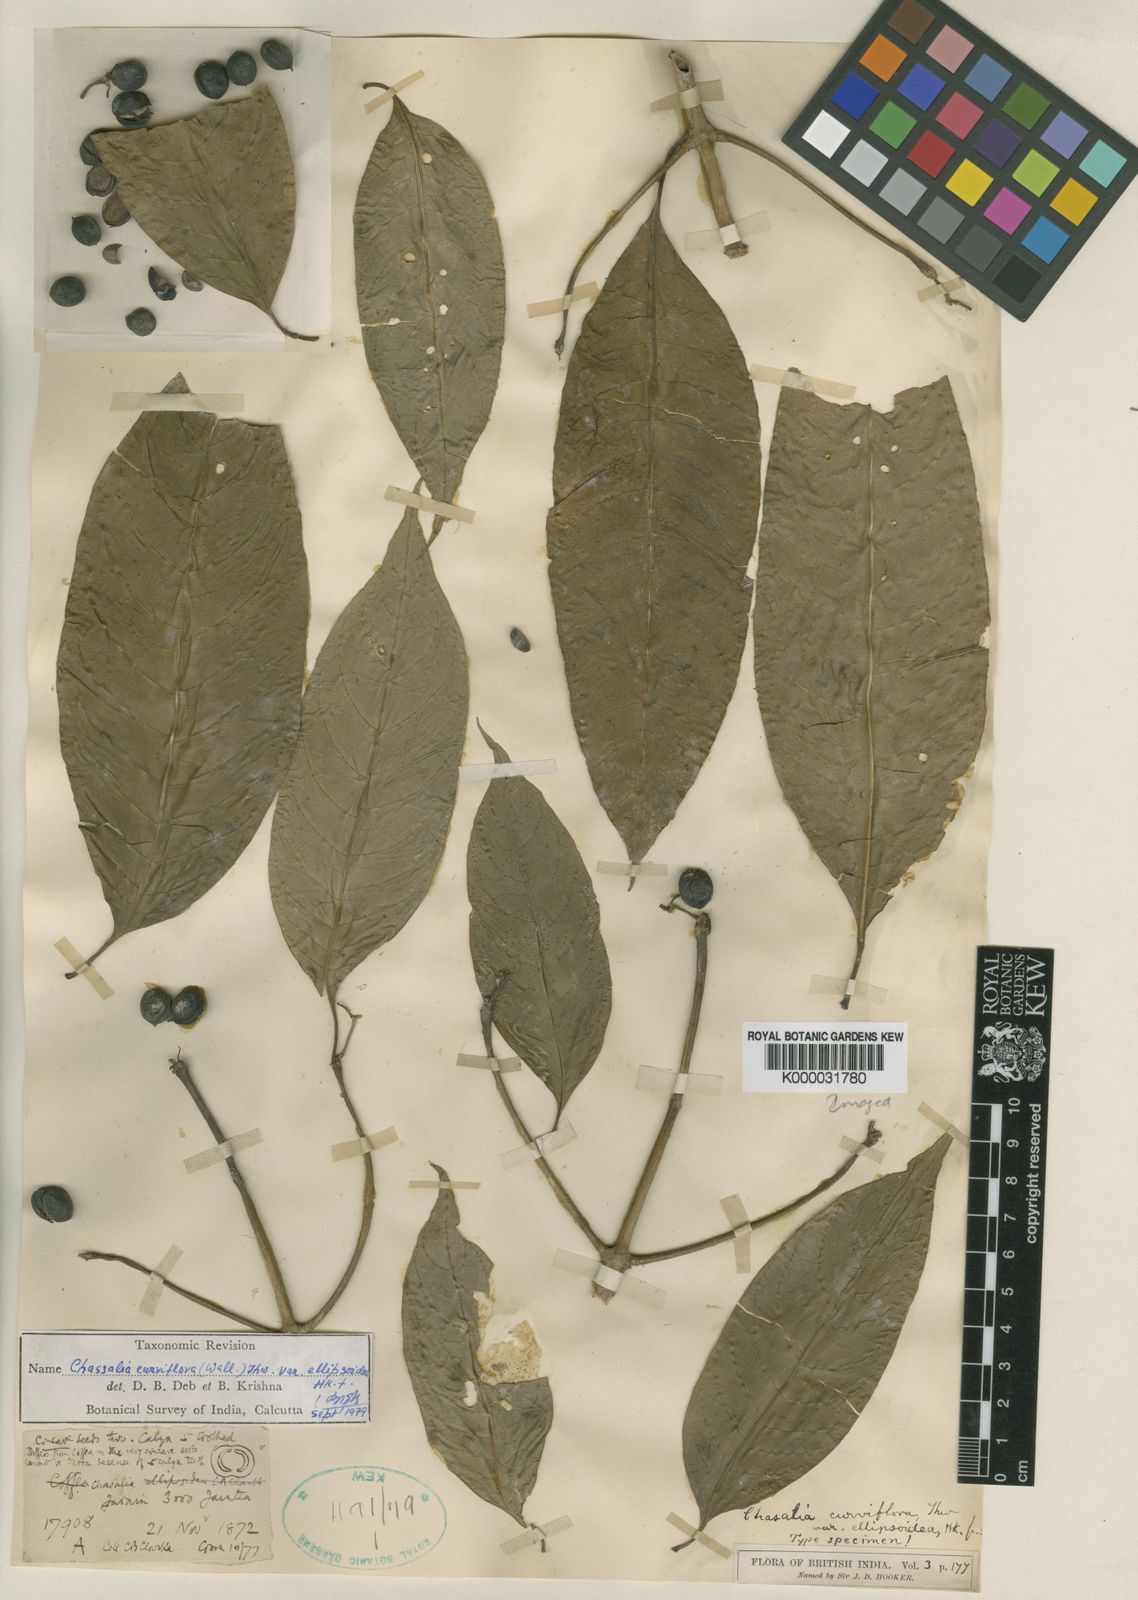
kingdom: Plantae
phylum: Tracheophyta
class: Magnoliopsida
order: Gentianales
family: Rubiaceae
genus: Chassalia
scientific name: Chassalia curviflora
